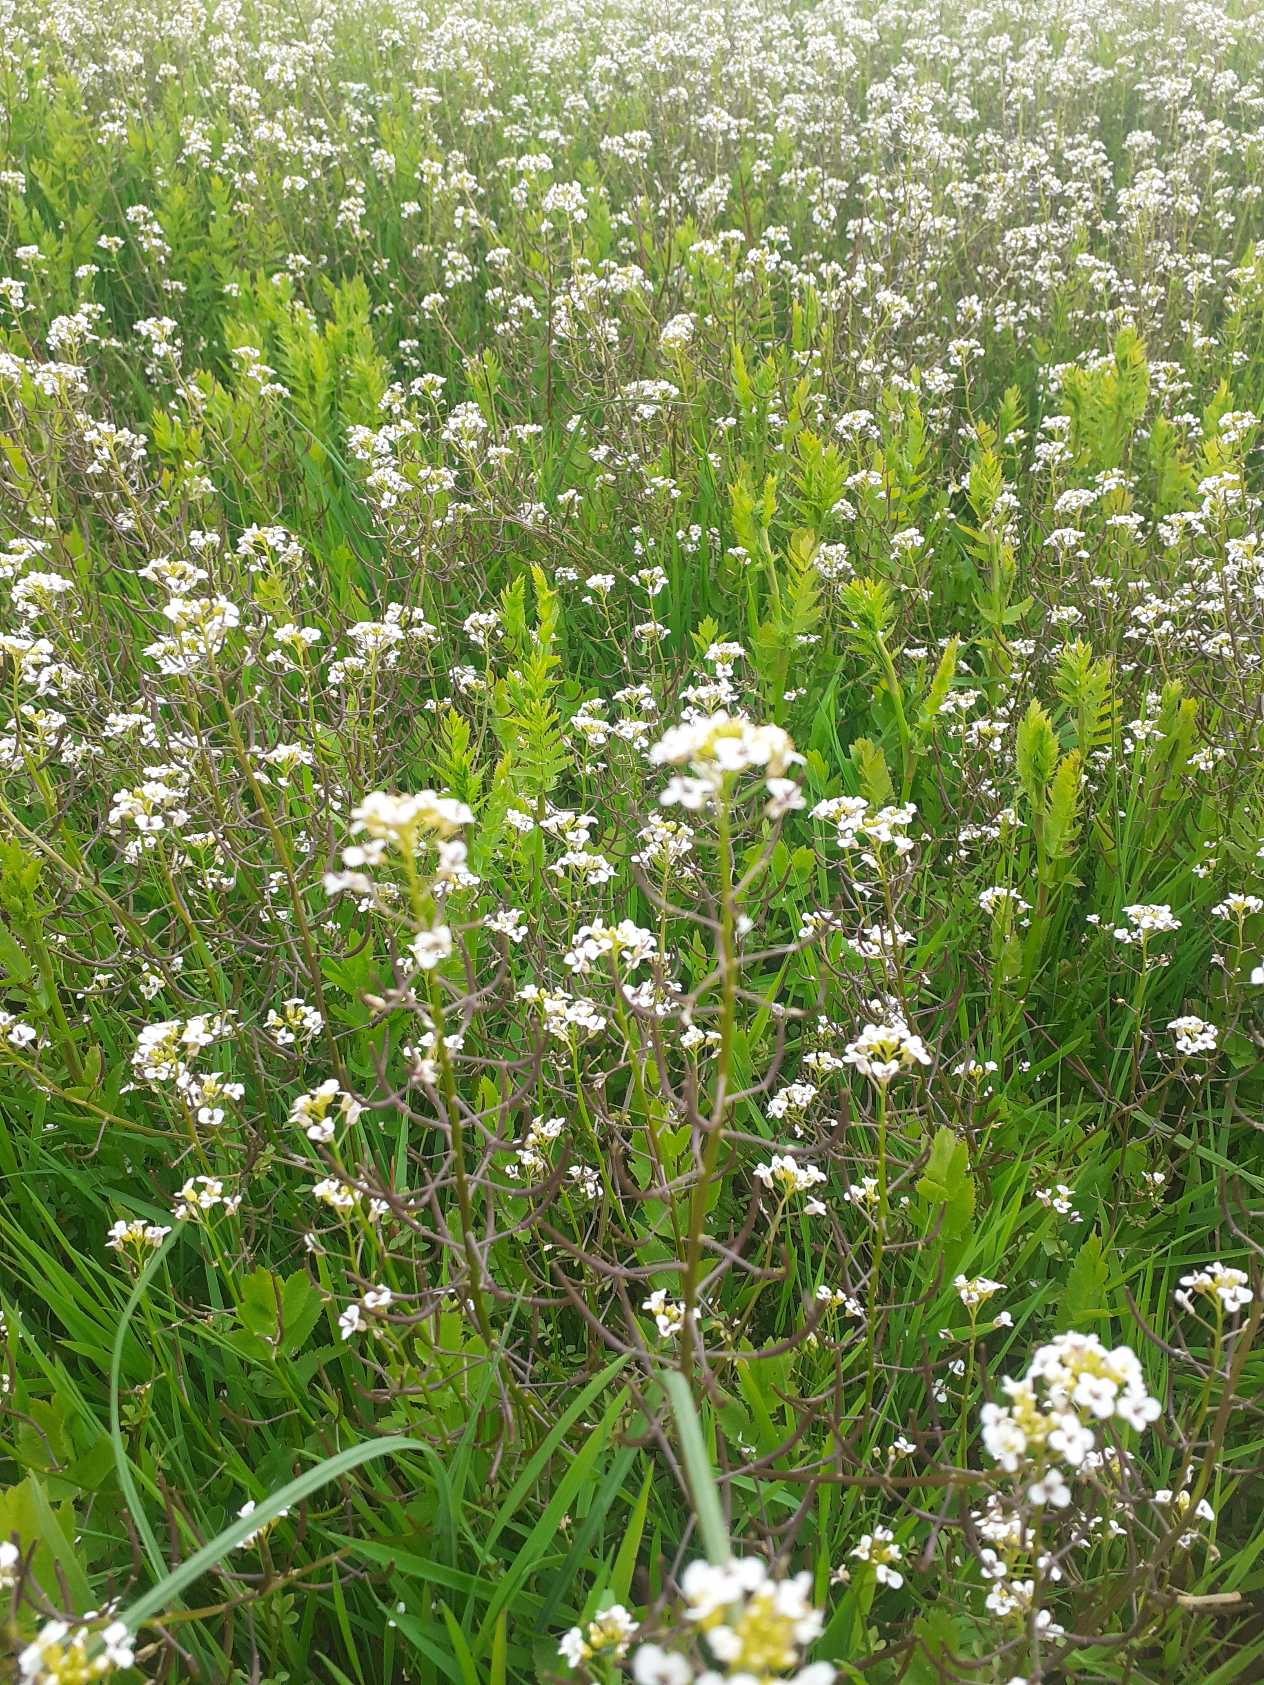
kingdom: Plantae
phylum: Tracheophyta
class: Magnoliopsida
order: Brassicales
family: Brassicaceae
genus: Nasturtium
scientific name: Nasturtium microphyllum
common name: Tyndskulpet brøndkarse
